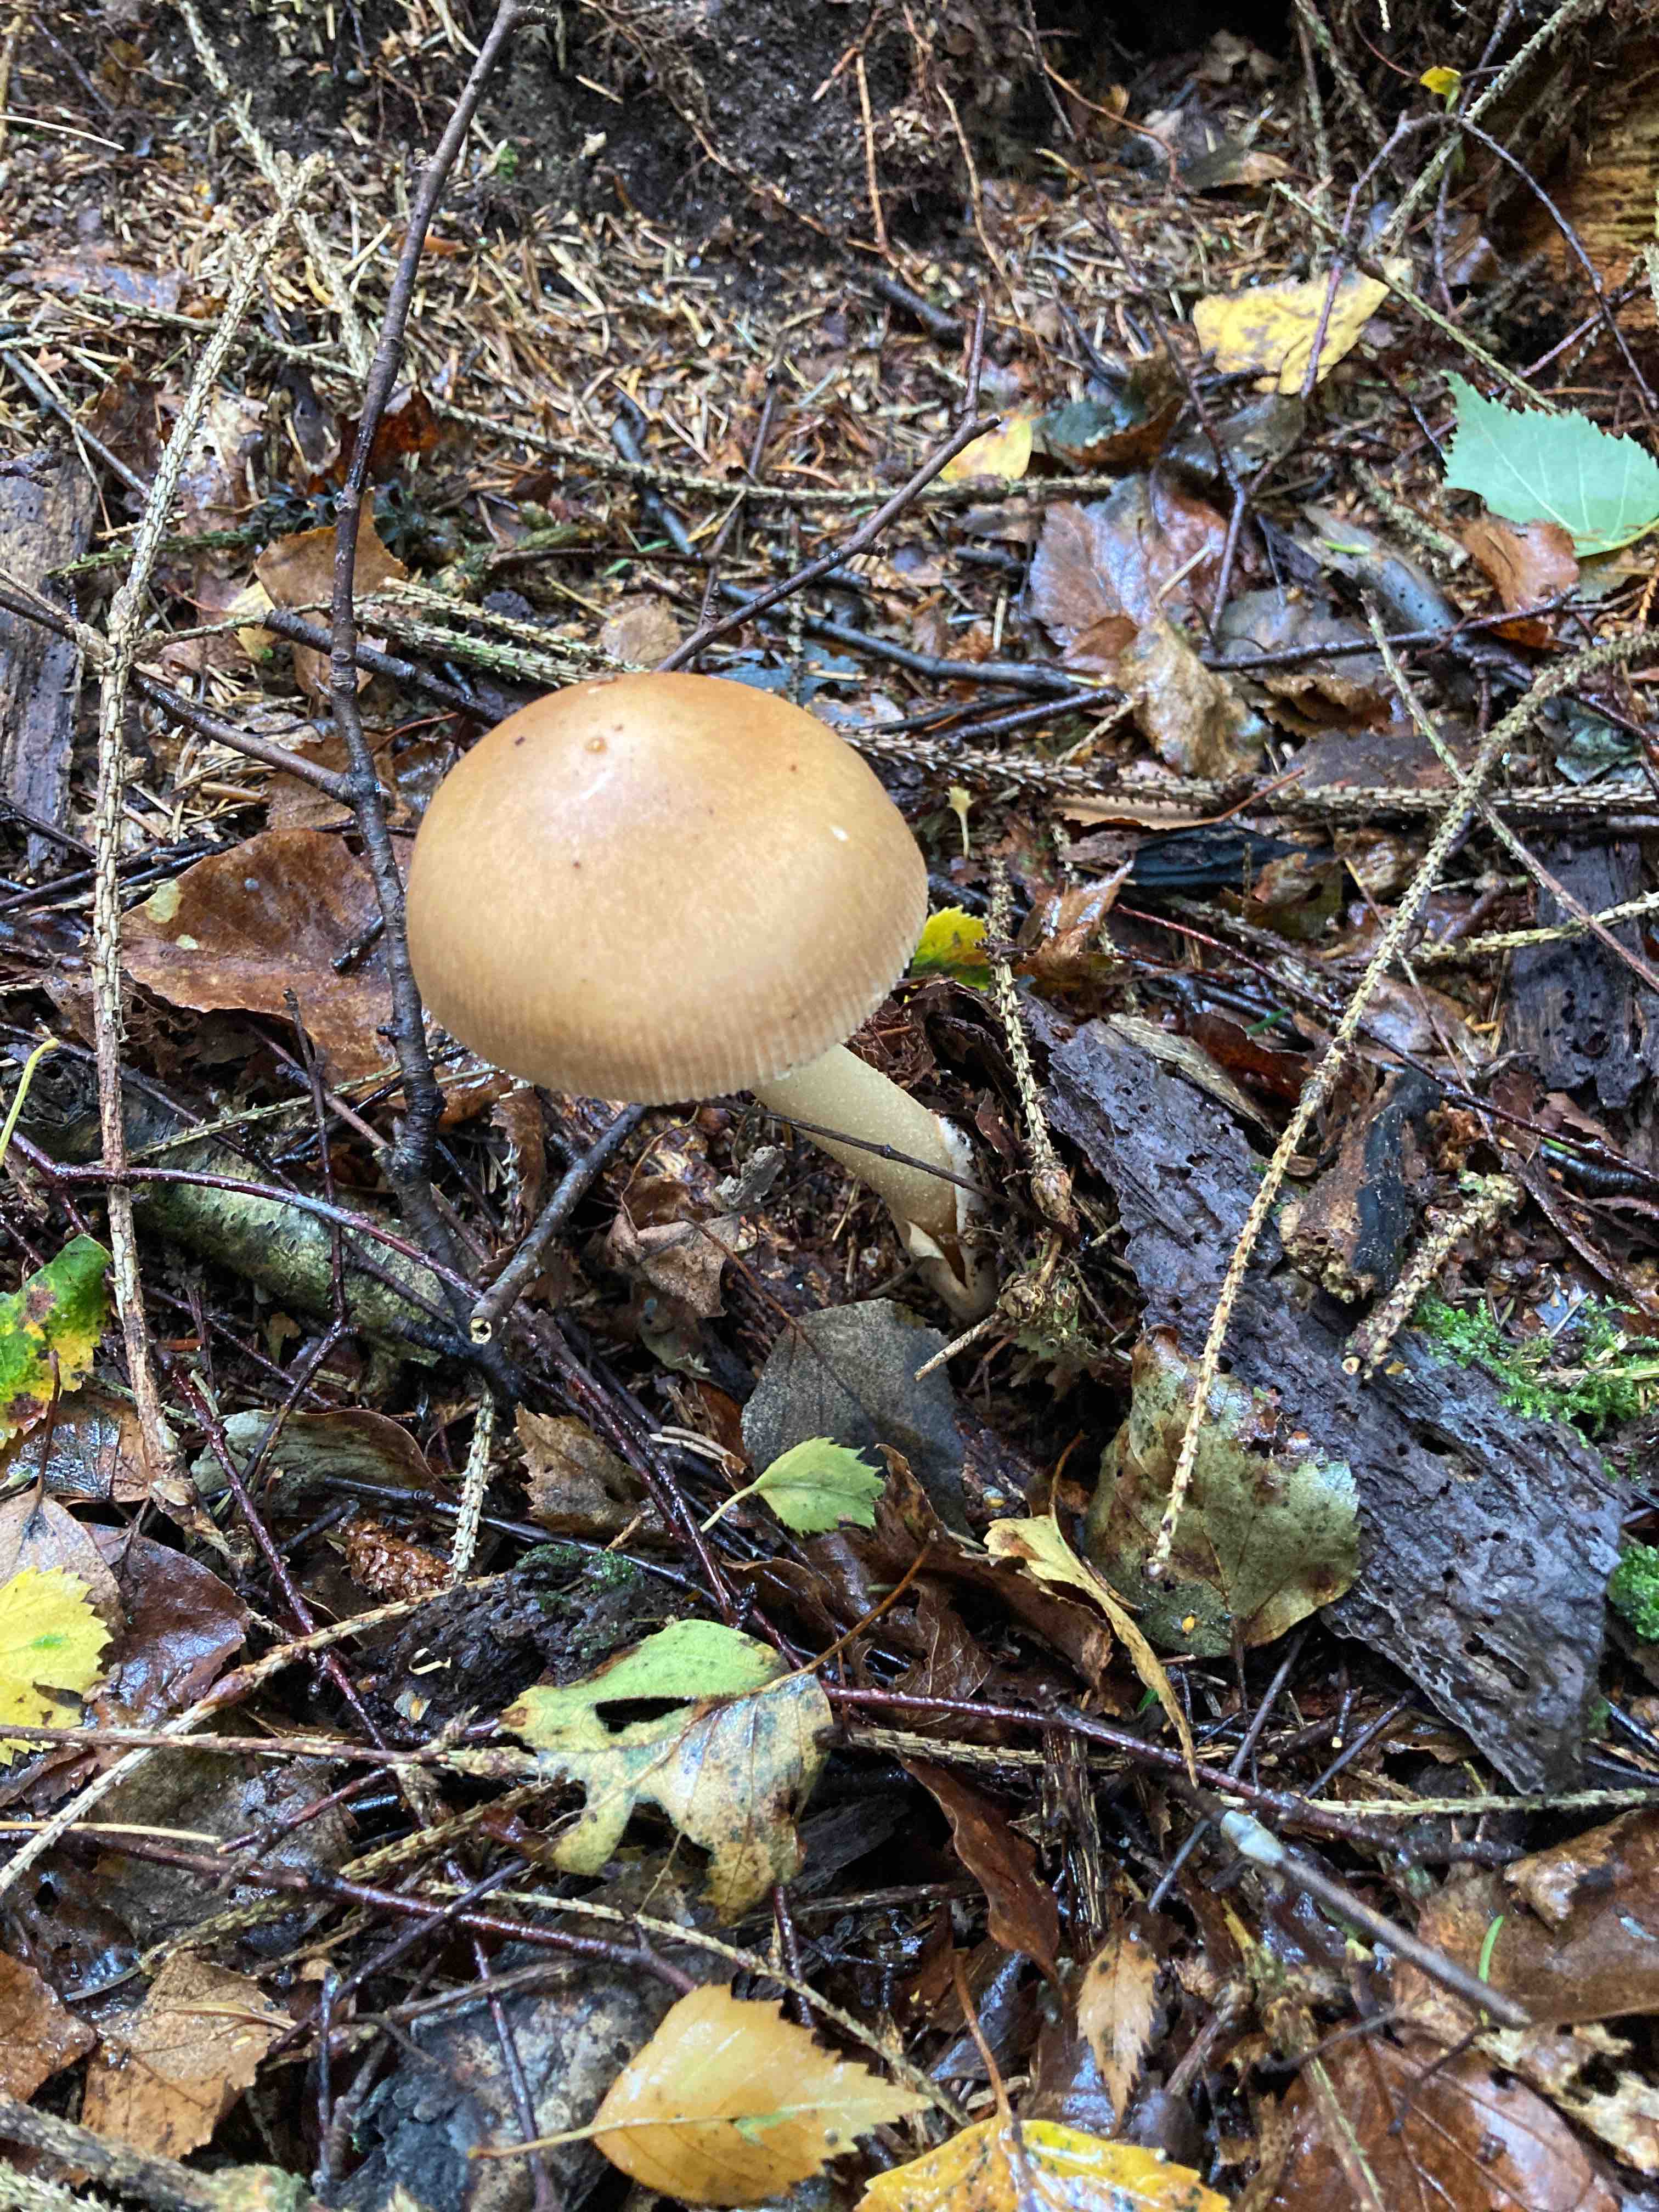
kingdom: Fungi
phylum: Basidiomycota
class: Agaricomycetes
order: Agaricales
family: Amanitaceae
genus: Amanita
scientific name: Amanita fulva
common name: brun kam-fluesvamp
